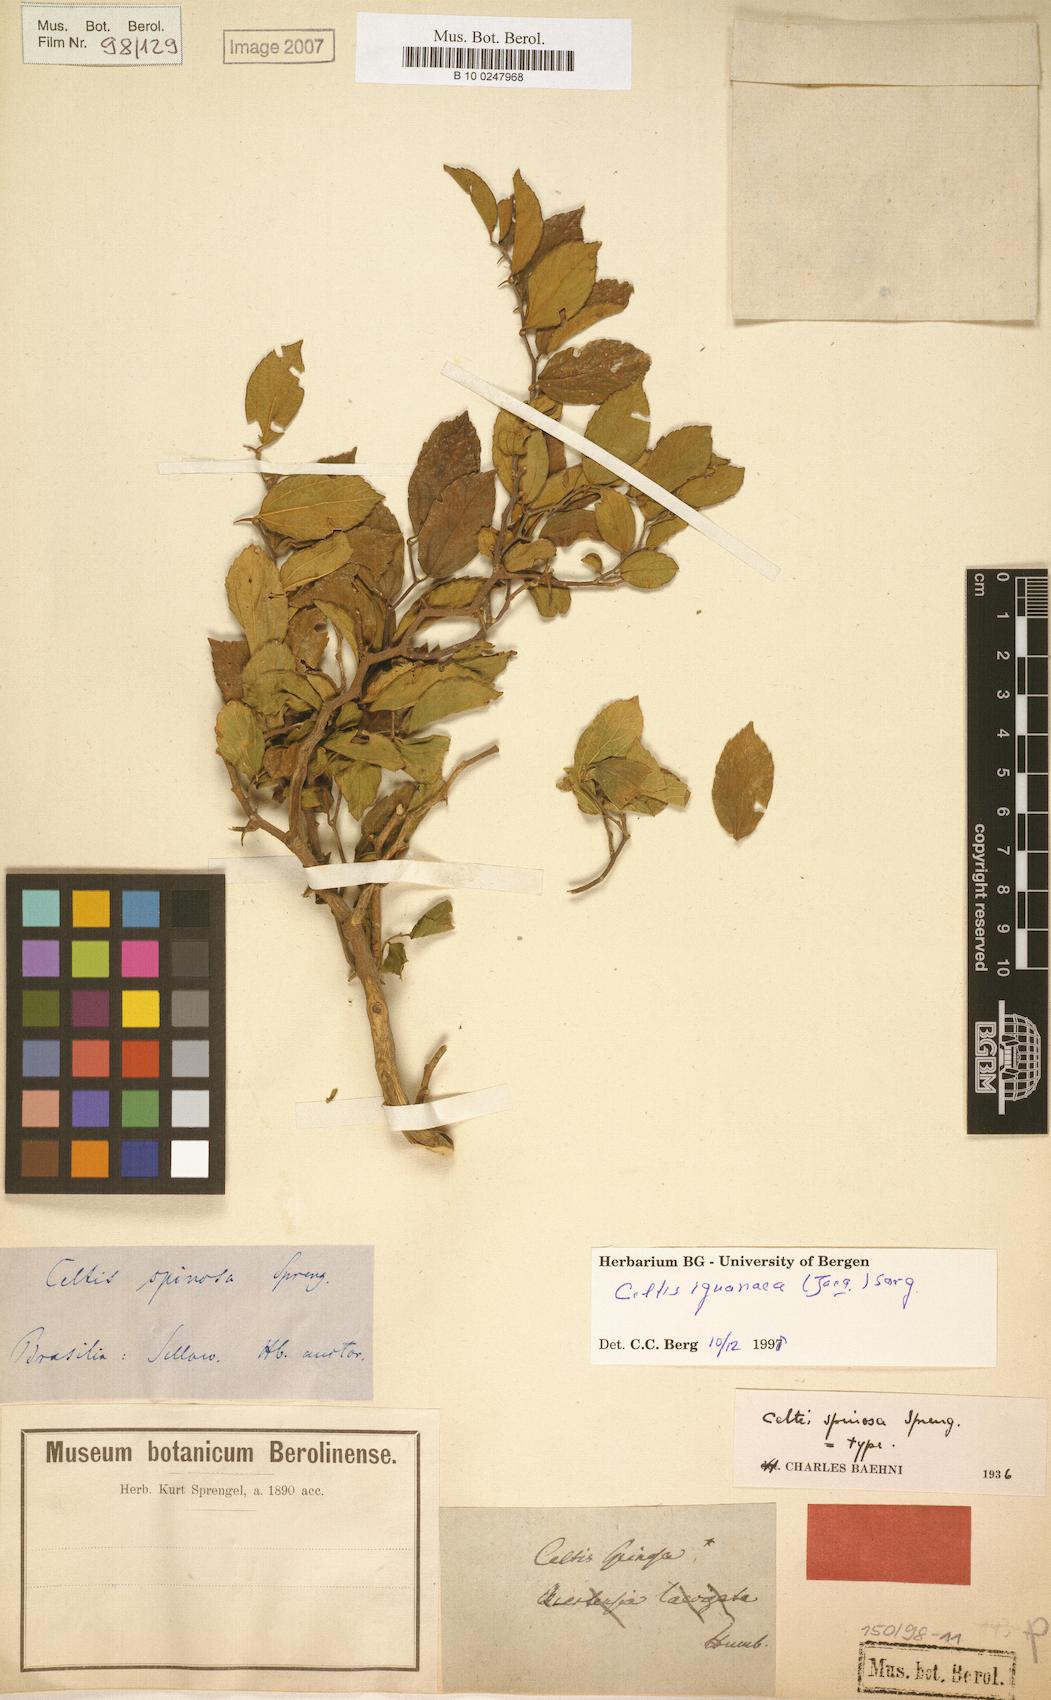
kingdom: Plantae
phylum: Tracheophyta
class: Magnoliopsida
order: Rosales
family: Cannabaceae
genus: Celtis
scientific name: Celtis iguanaea
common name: Iguana hackberry
